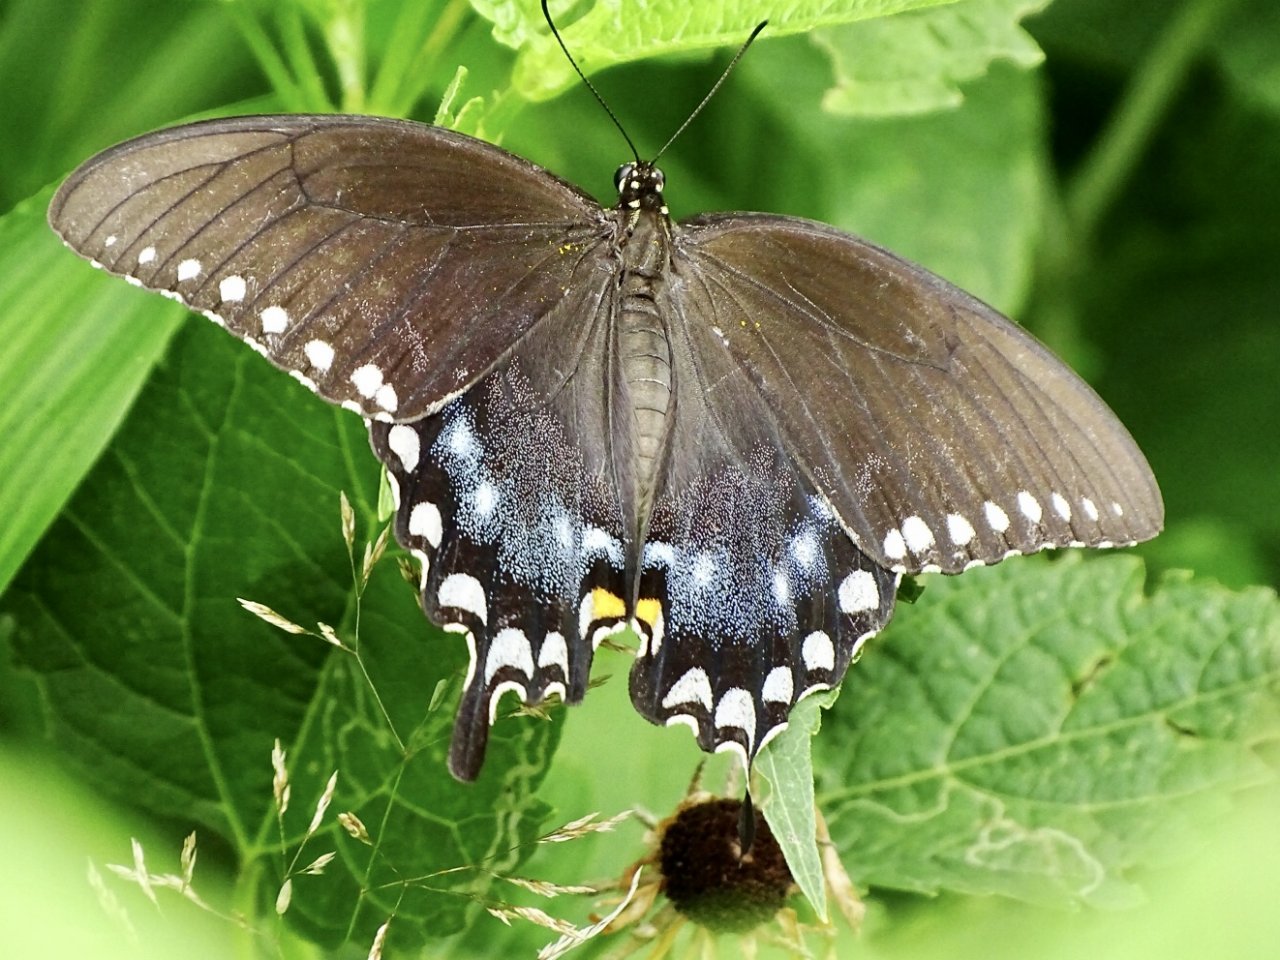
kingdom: Animalia
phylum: Arthropoda
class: Insecta
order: Lepidoptera
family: Papilionidae
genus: Pterourus
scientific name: Pterourus troilus
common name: Spicebush Swallowtail
